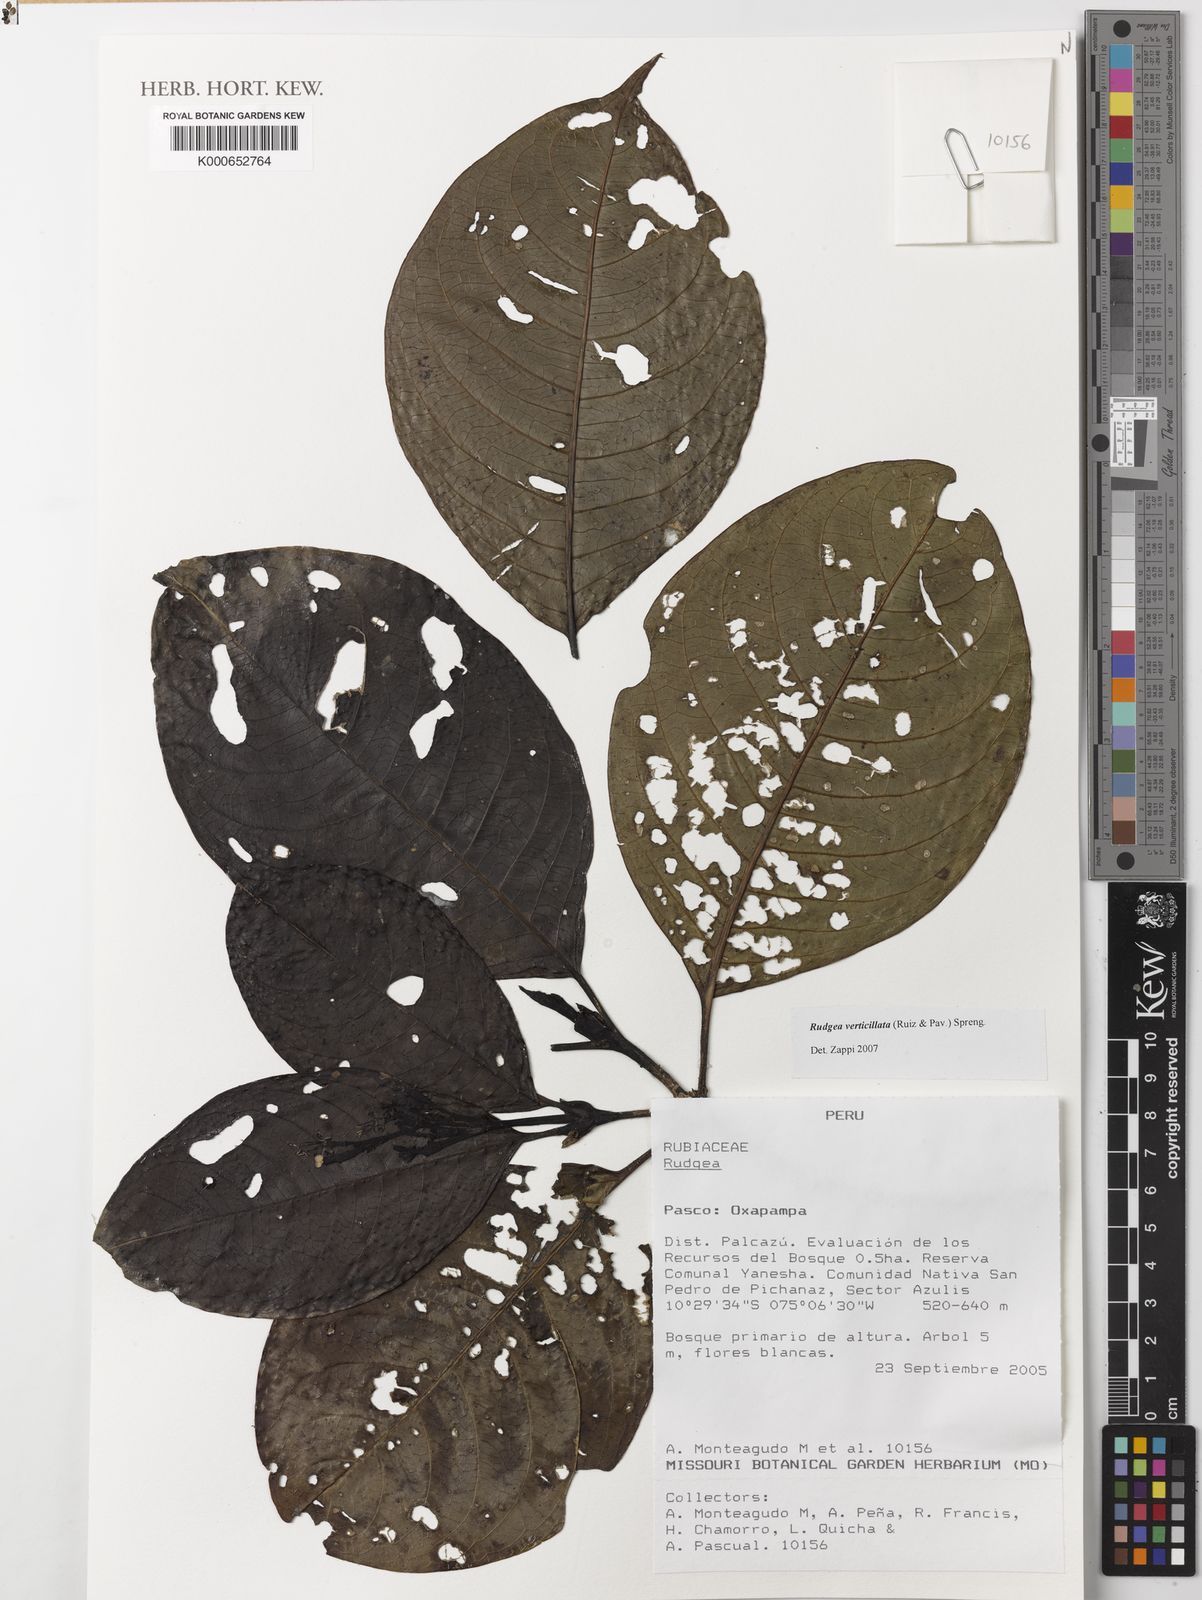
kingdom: Plantae
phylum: Tracheophyta
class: Magnoliopsida
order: Gentianales
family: Rubiaceae
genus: Rudgea
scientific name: Rudgea verticillata
